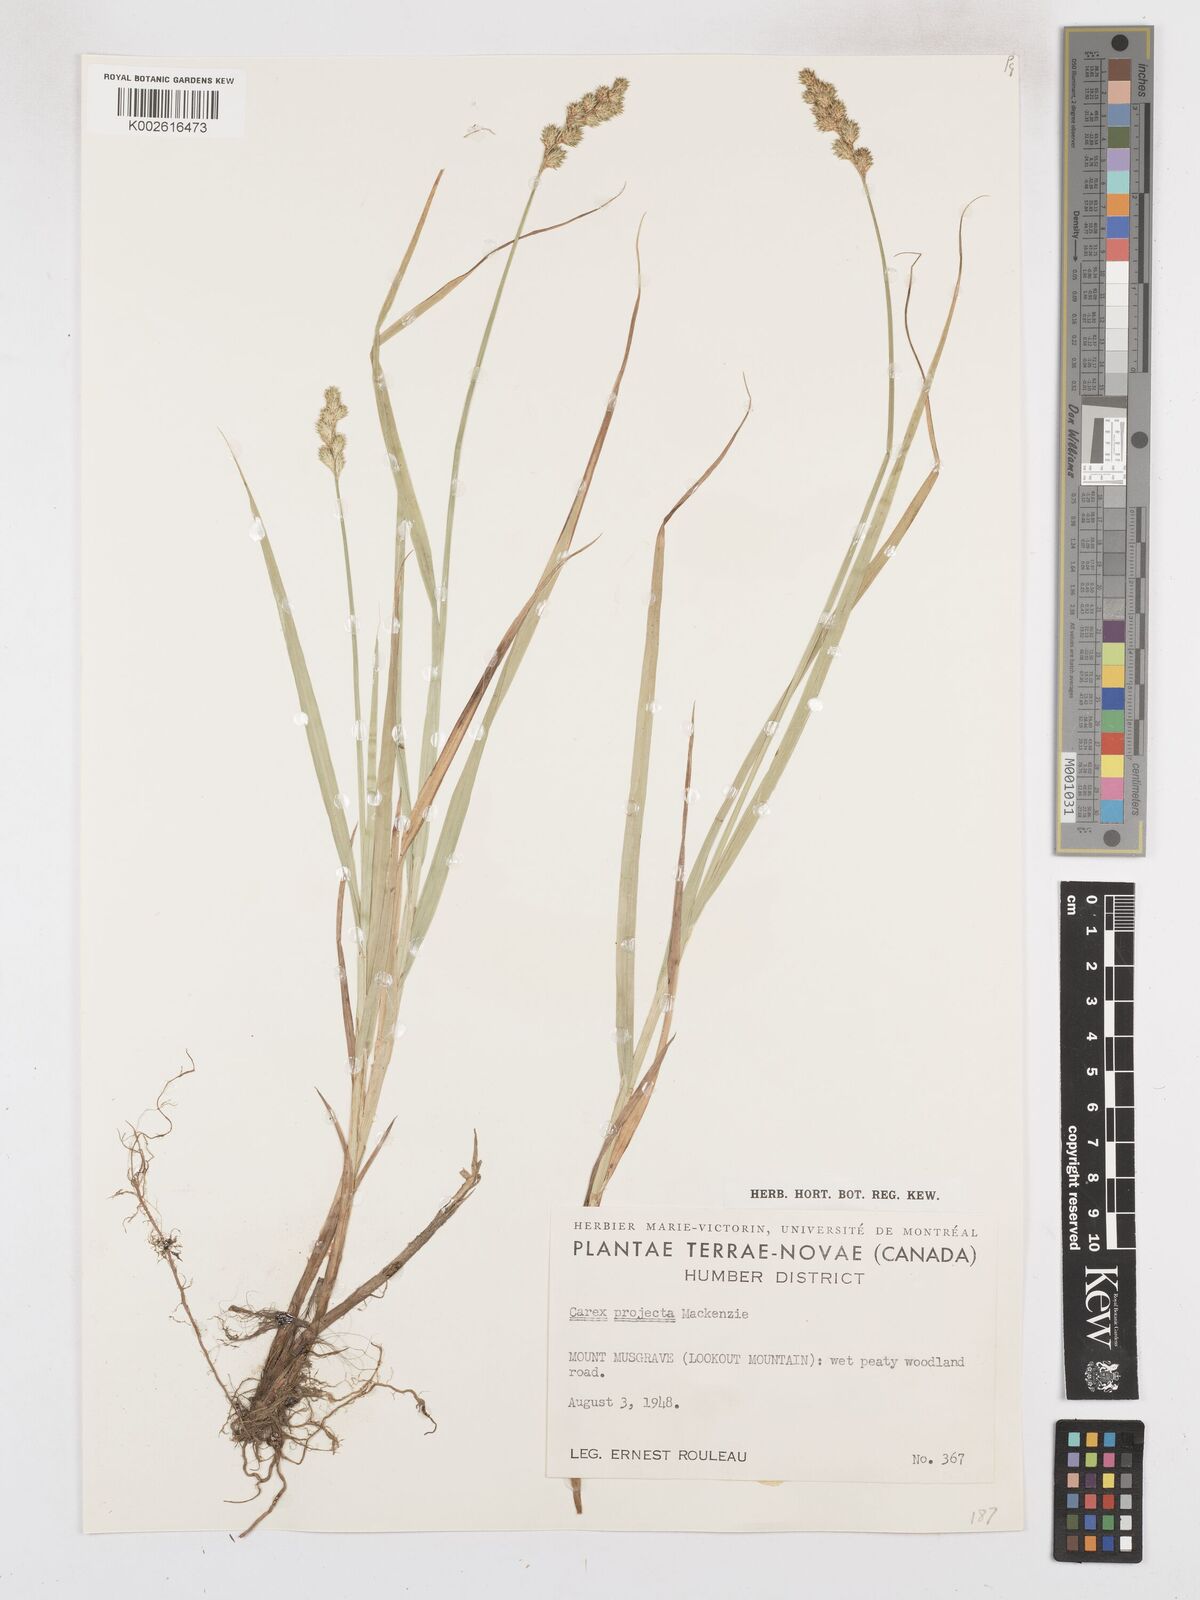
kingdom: Plantae
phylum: Tracheophyta
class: Liliopsida
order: Poales
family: Cyperaceae
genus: Carex
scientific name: Carex projecta
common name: Loose-headed oval sedge
